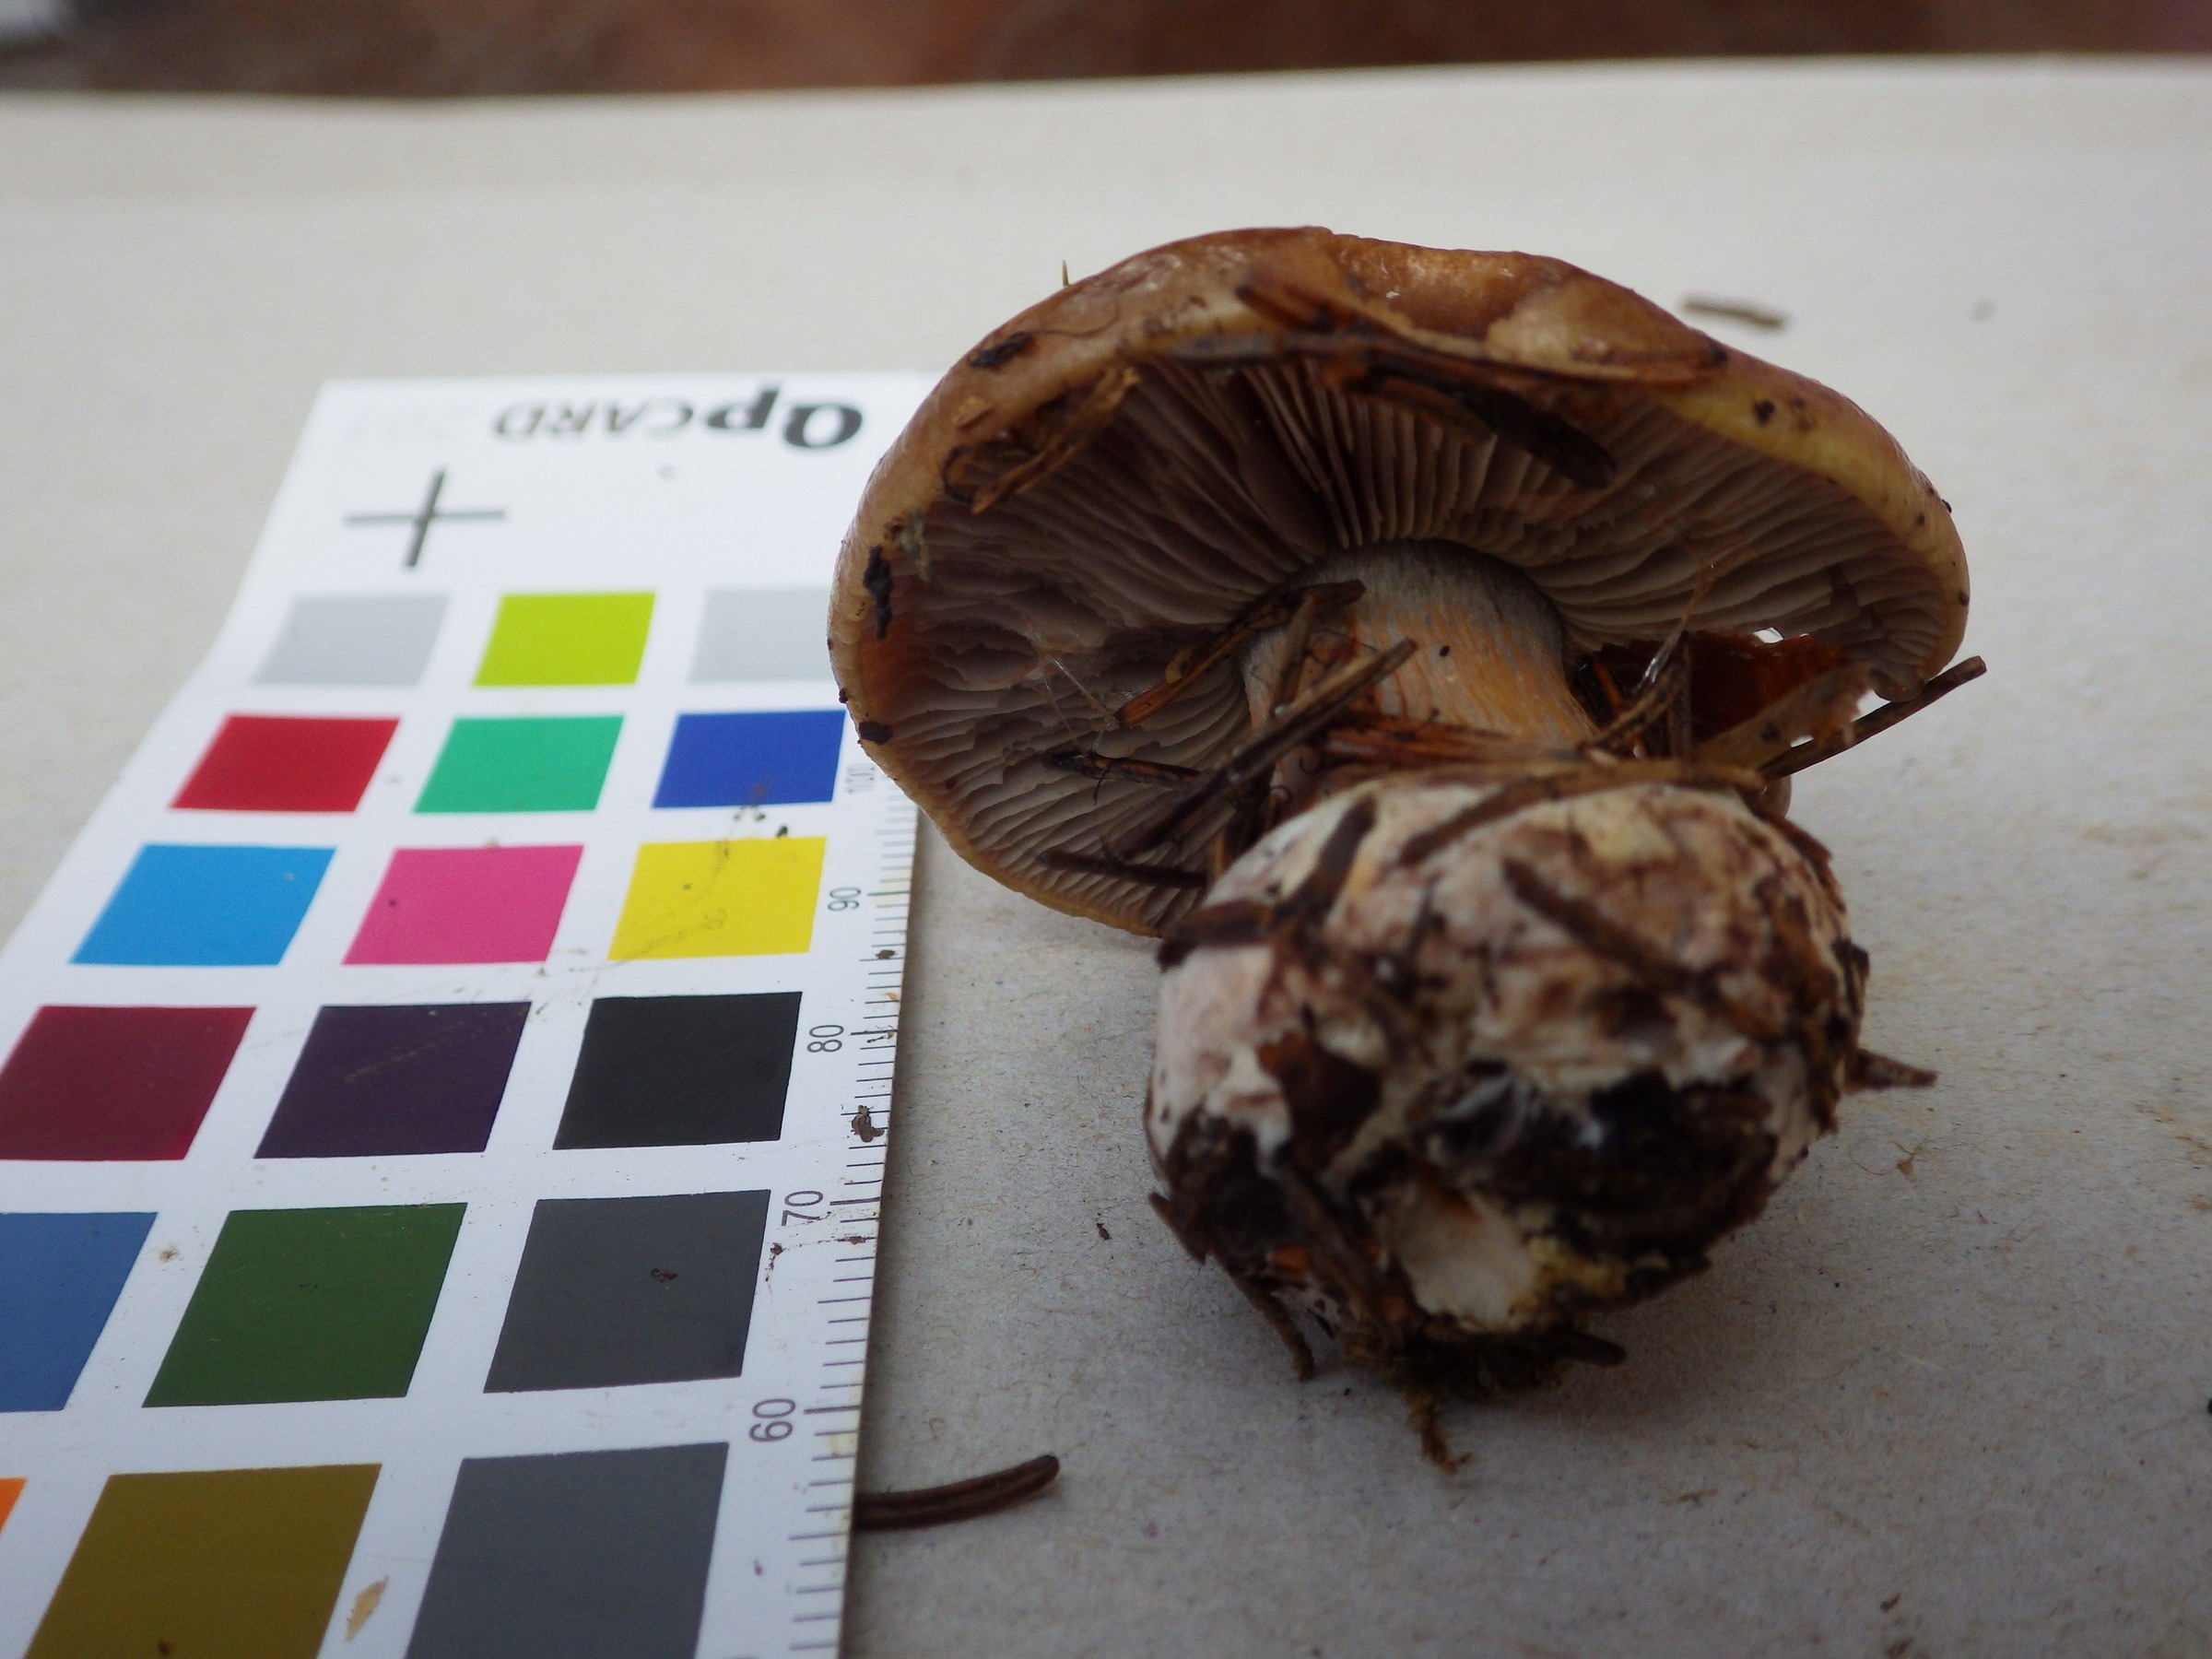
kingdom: Fungi
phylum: Basidiomycota
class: Agaricomycetes
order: Agaricales
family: Cortinariaceae
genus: Thaxterogaster
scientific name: Thaxterogaster herpeticus
